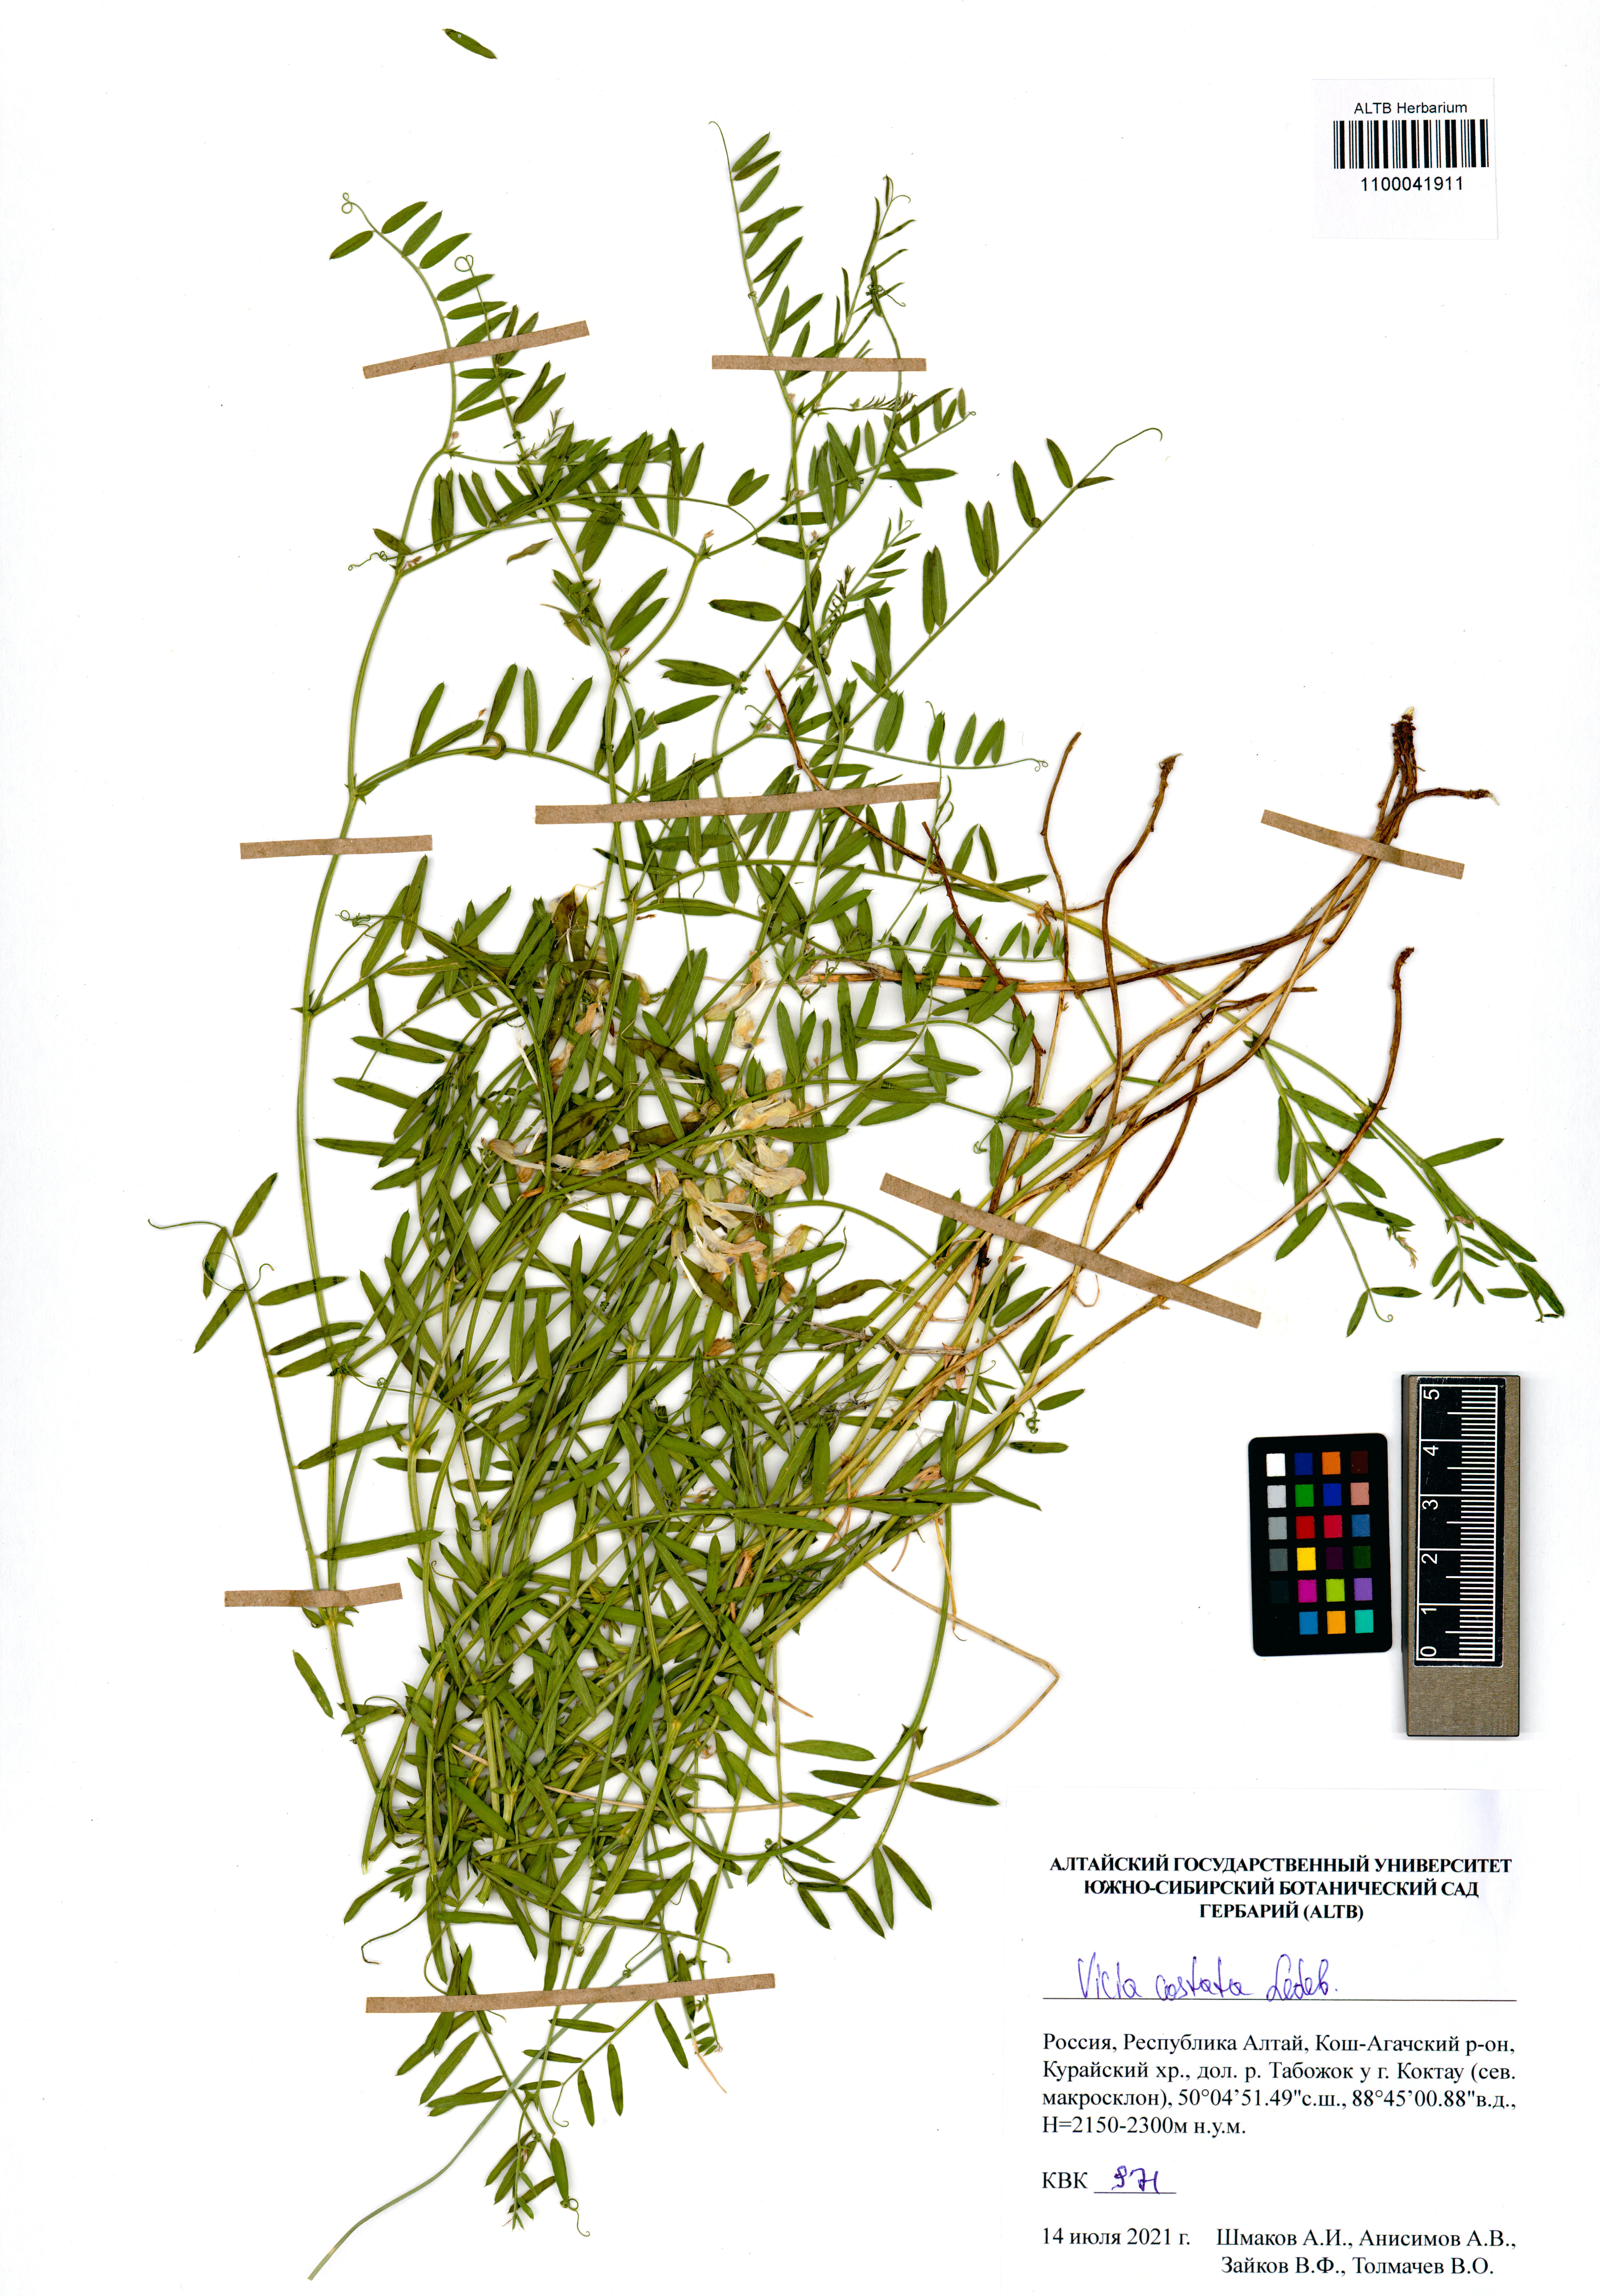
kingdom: Plantae
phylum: Tracheophyta
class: Magnoliopsida
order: Fabales
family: Fabaceae
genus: Vicia
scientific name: Vicia costata
